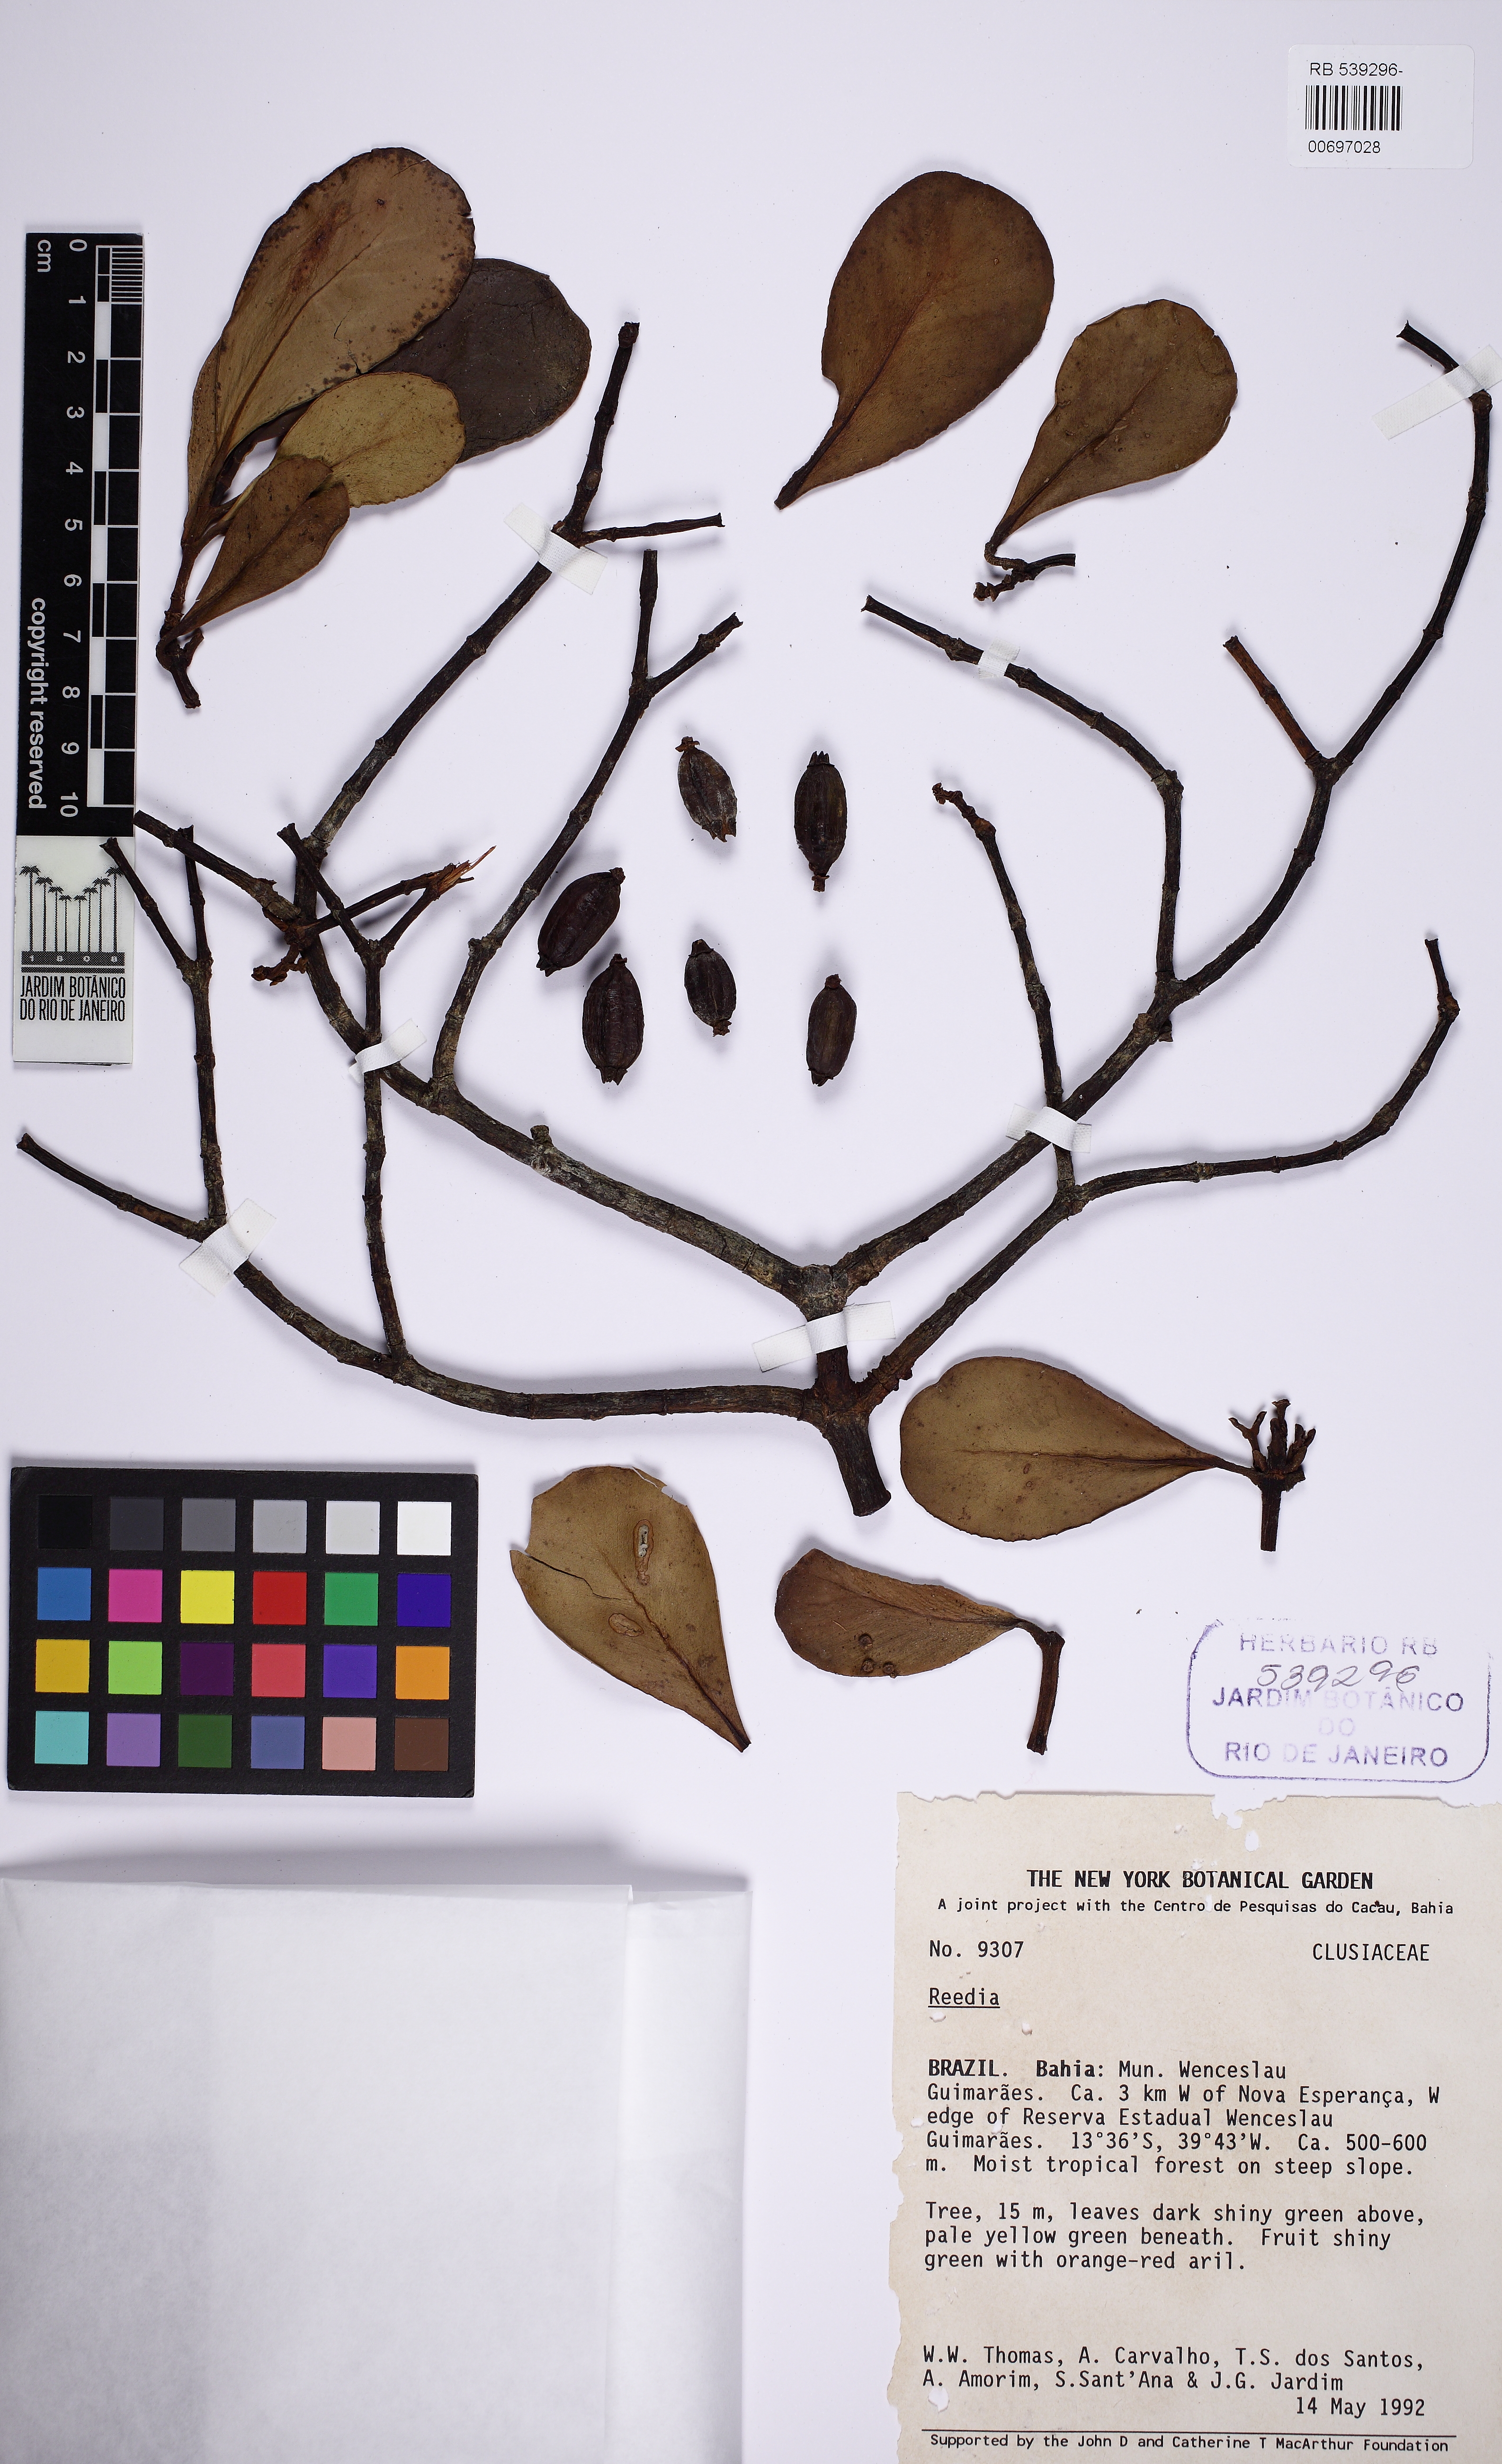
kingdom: Plantae
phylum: Tracheophyta
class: Magnoliopsida
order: Malpighiales
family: Clusiaceae
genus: Clusia
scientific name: Clusia panapanari
